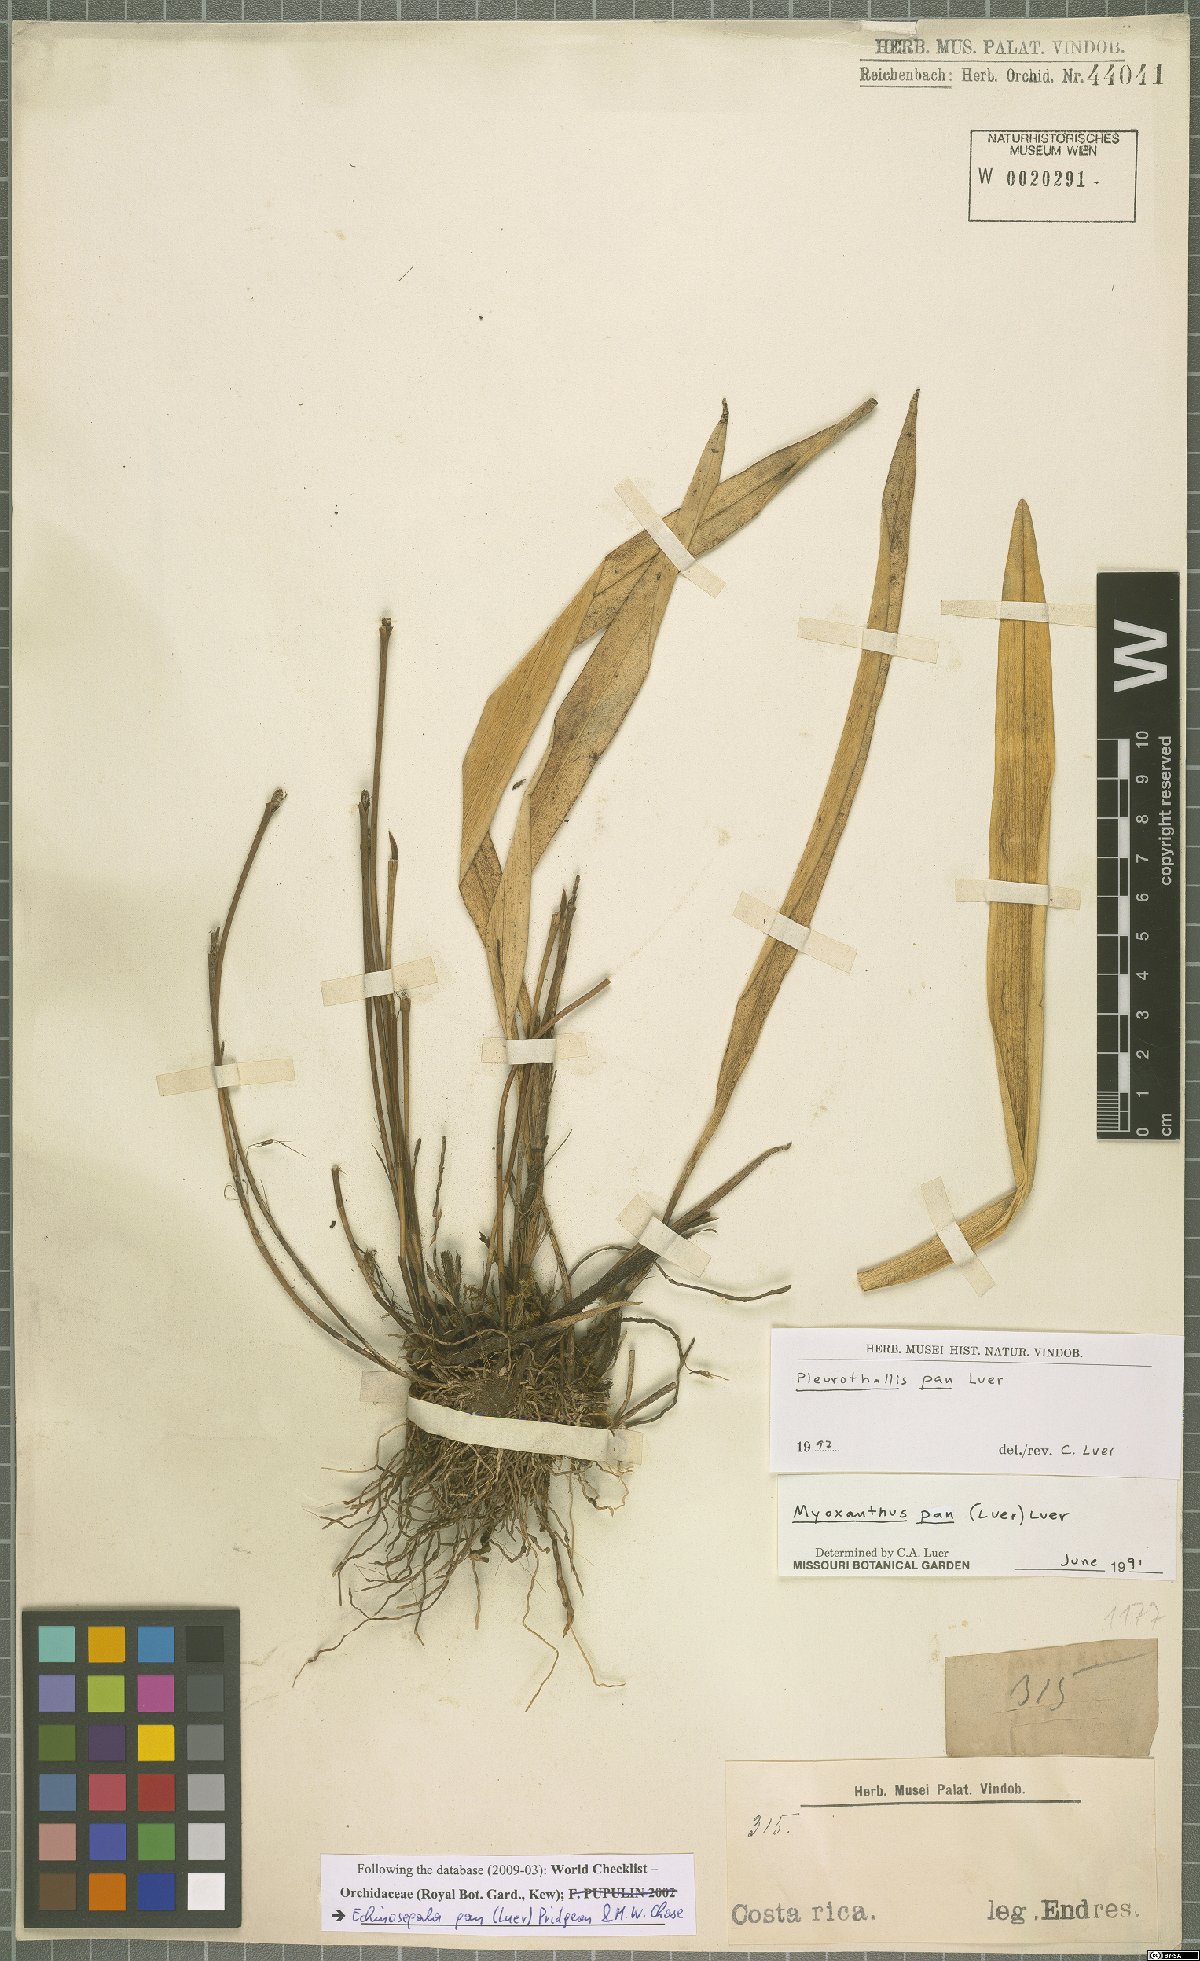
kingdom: Plantae
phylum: Tracheophyta
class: Liliopsida
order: Asparagales
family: Orchidaceae
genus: Echinosepala
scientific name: Echinosepala pan
